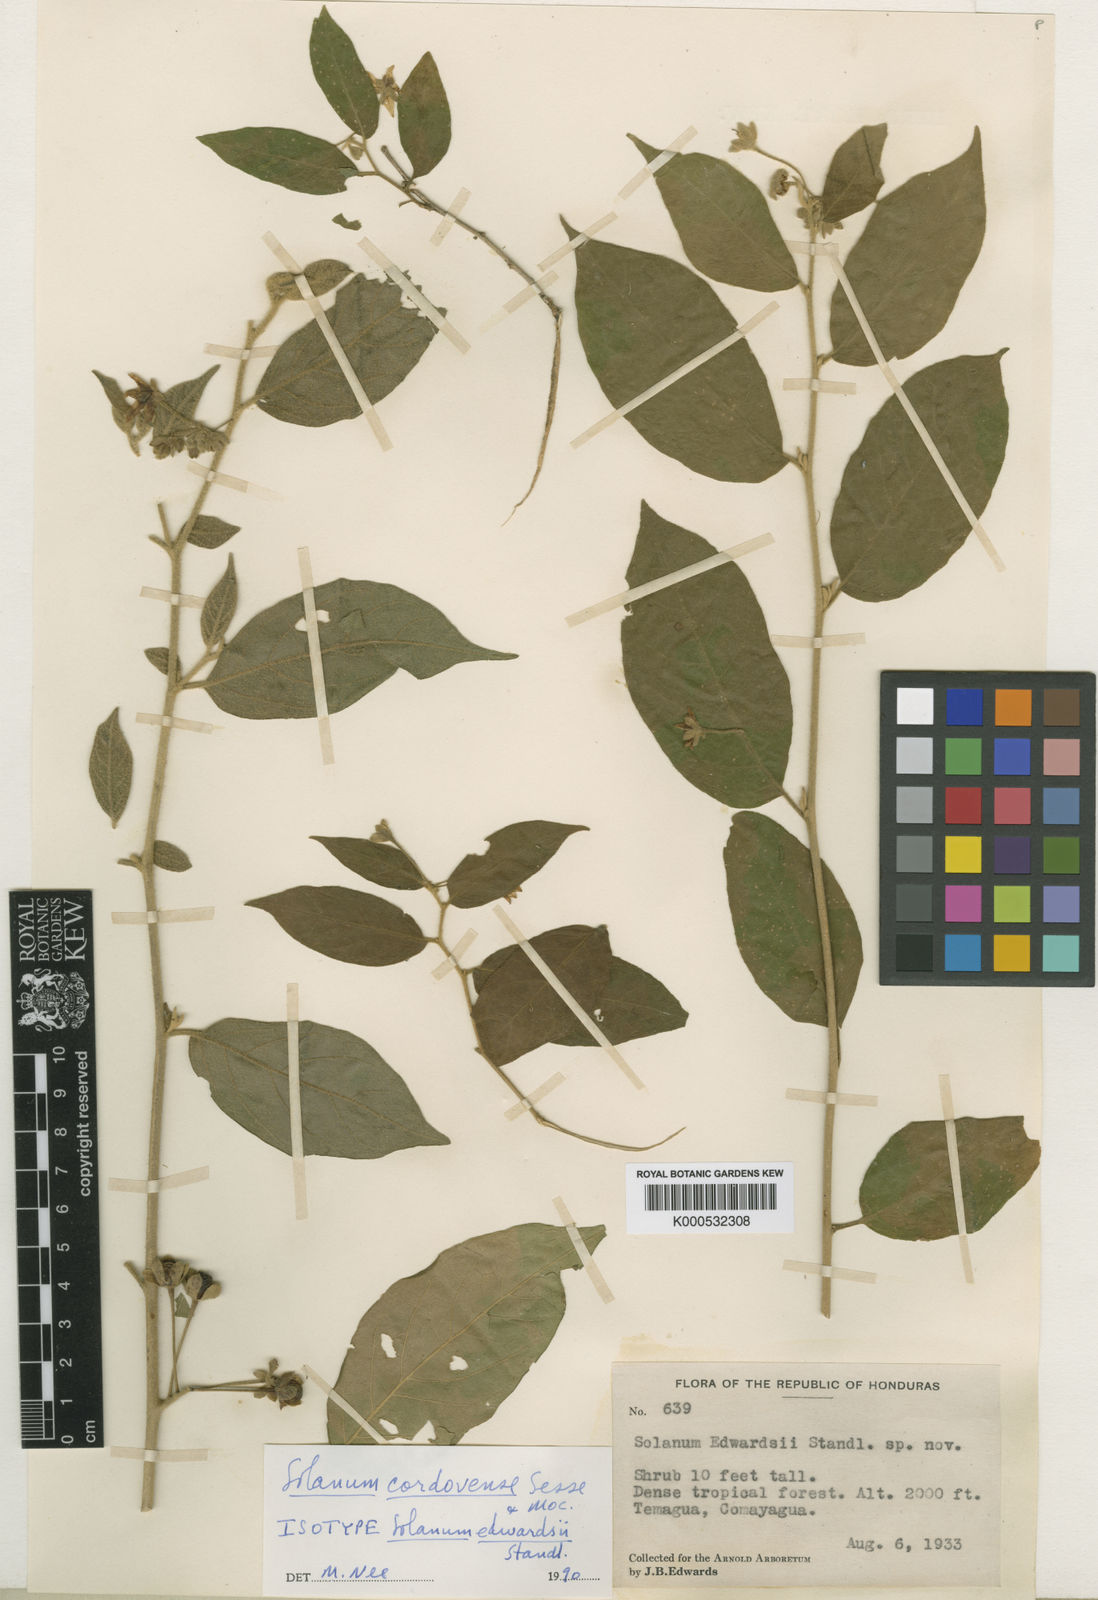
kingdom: Plantae
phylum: Tracheophyta
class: Magnoliopsida
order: Solanales
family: Solanaceae
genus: Solanum
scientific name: Solanum
